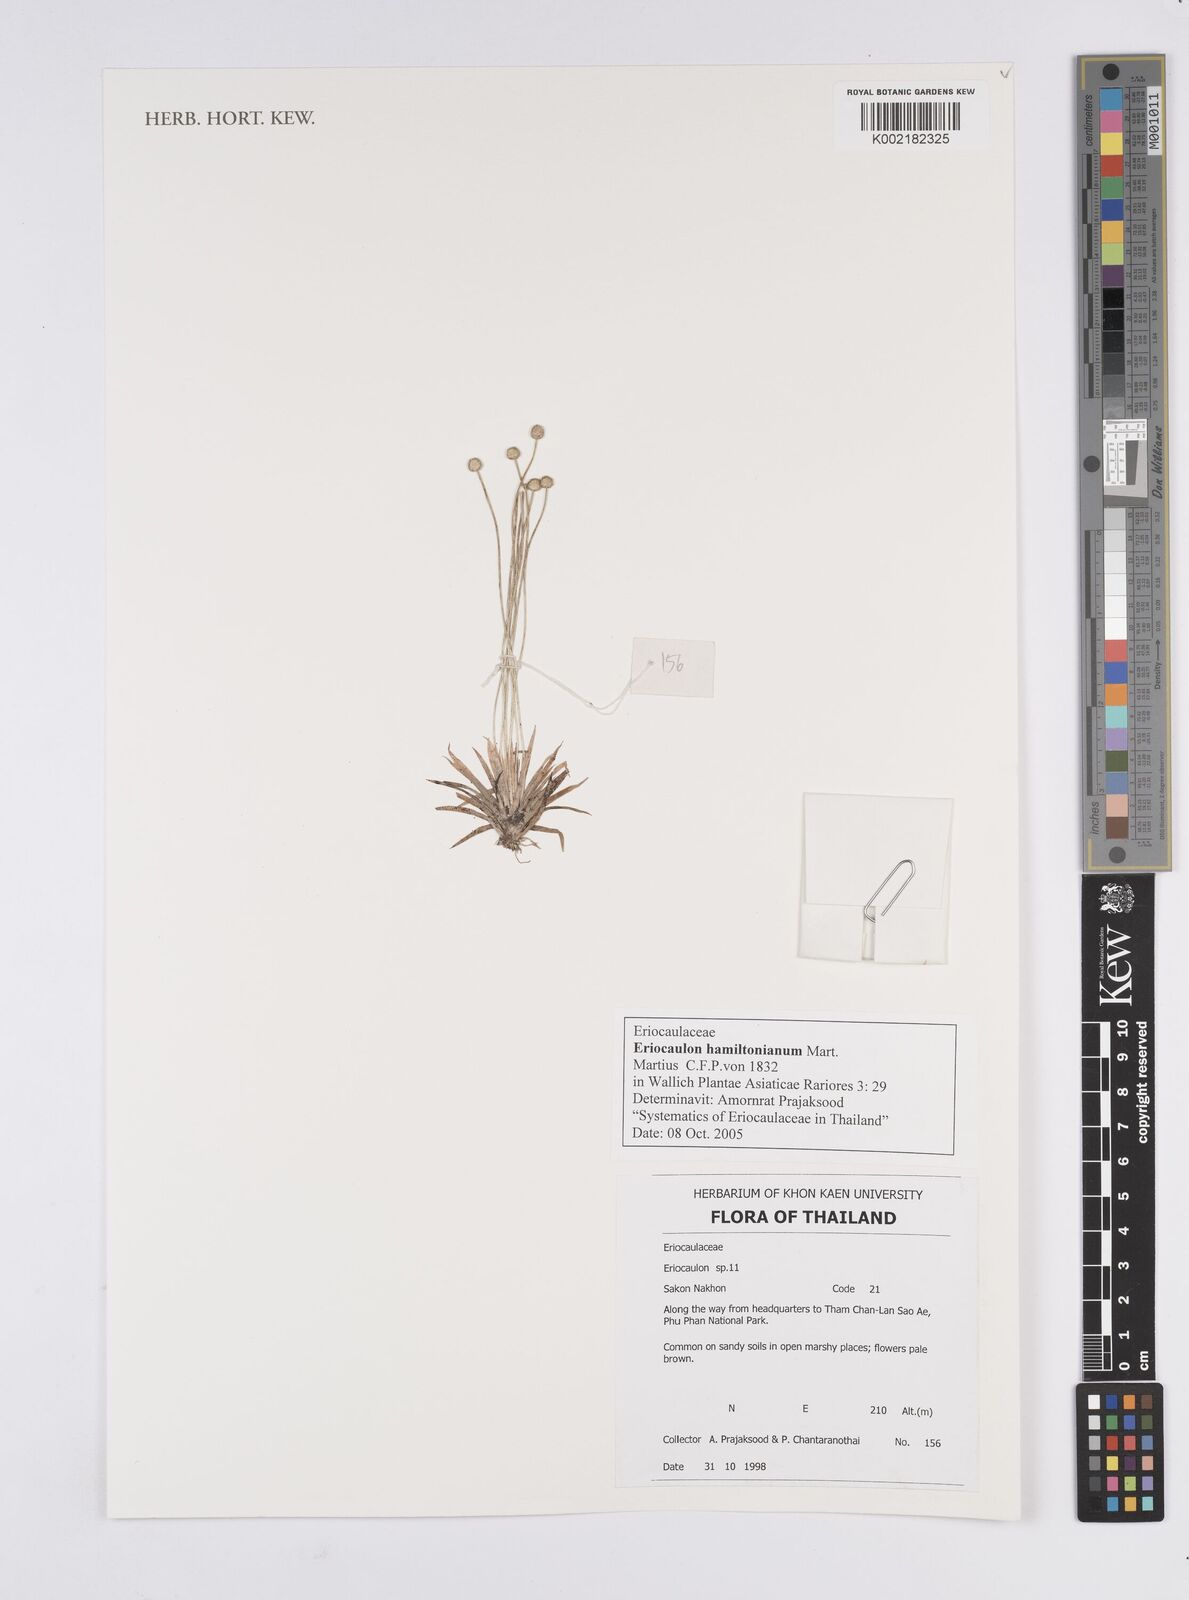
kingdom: Plantae
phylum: Tracheophyta
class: Liliopsida
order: Poales
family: Eriocaulaceae
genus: Eriocaulon
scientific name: Eriocaulon hamiltonianum
